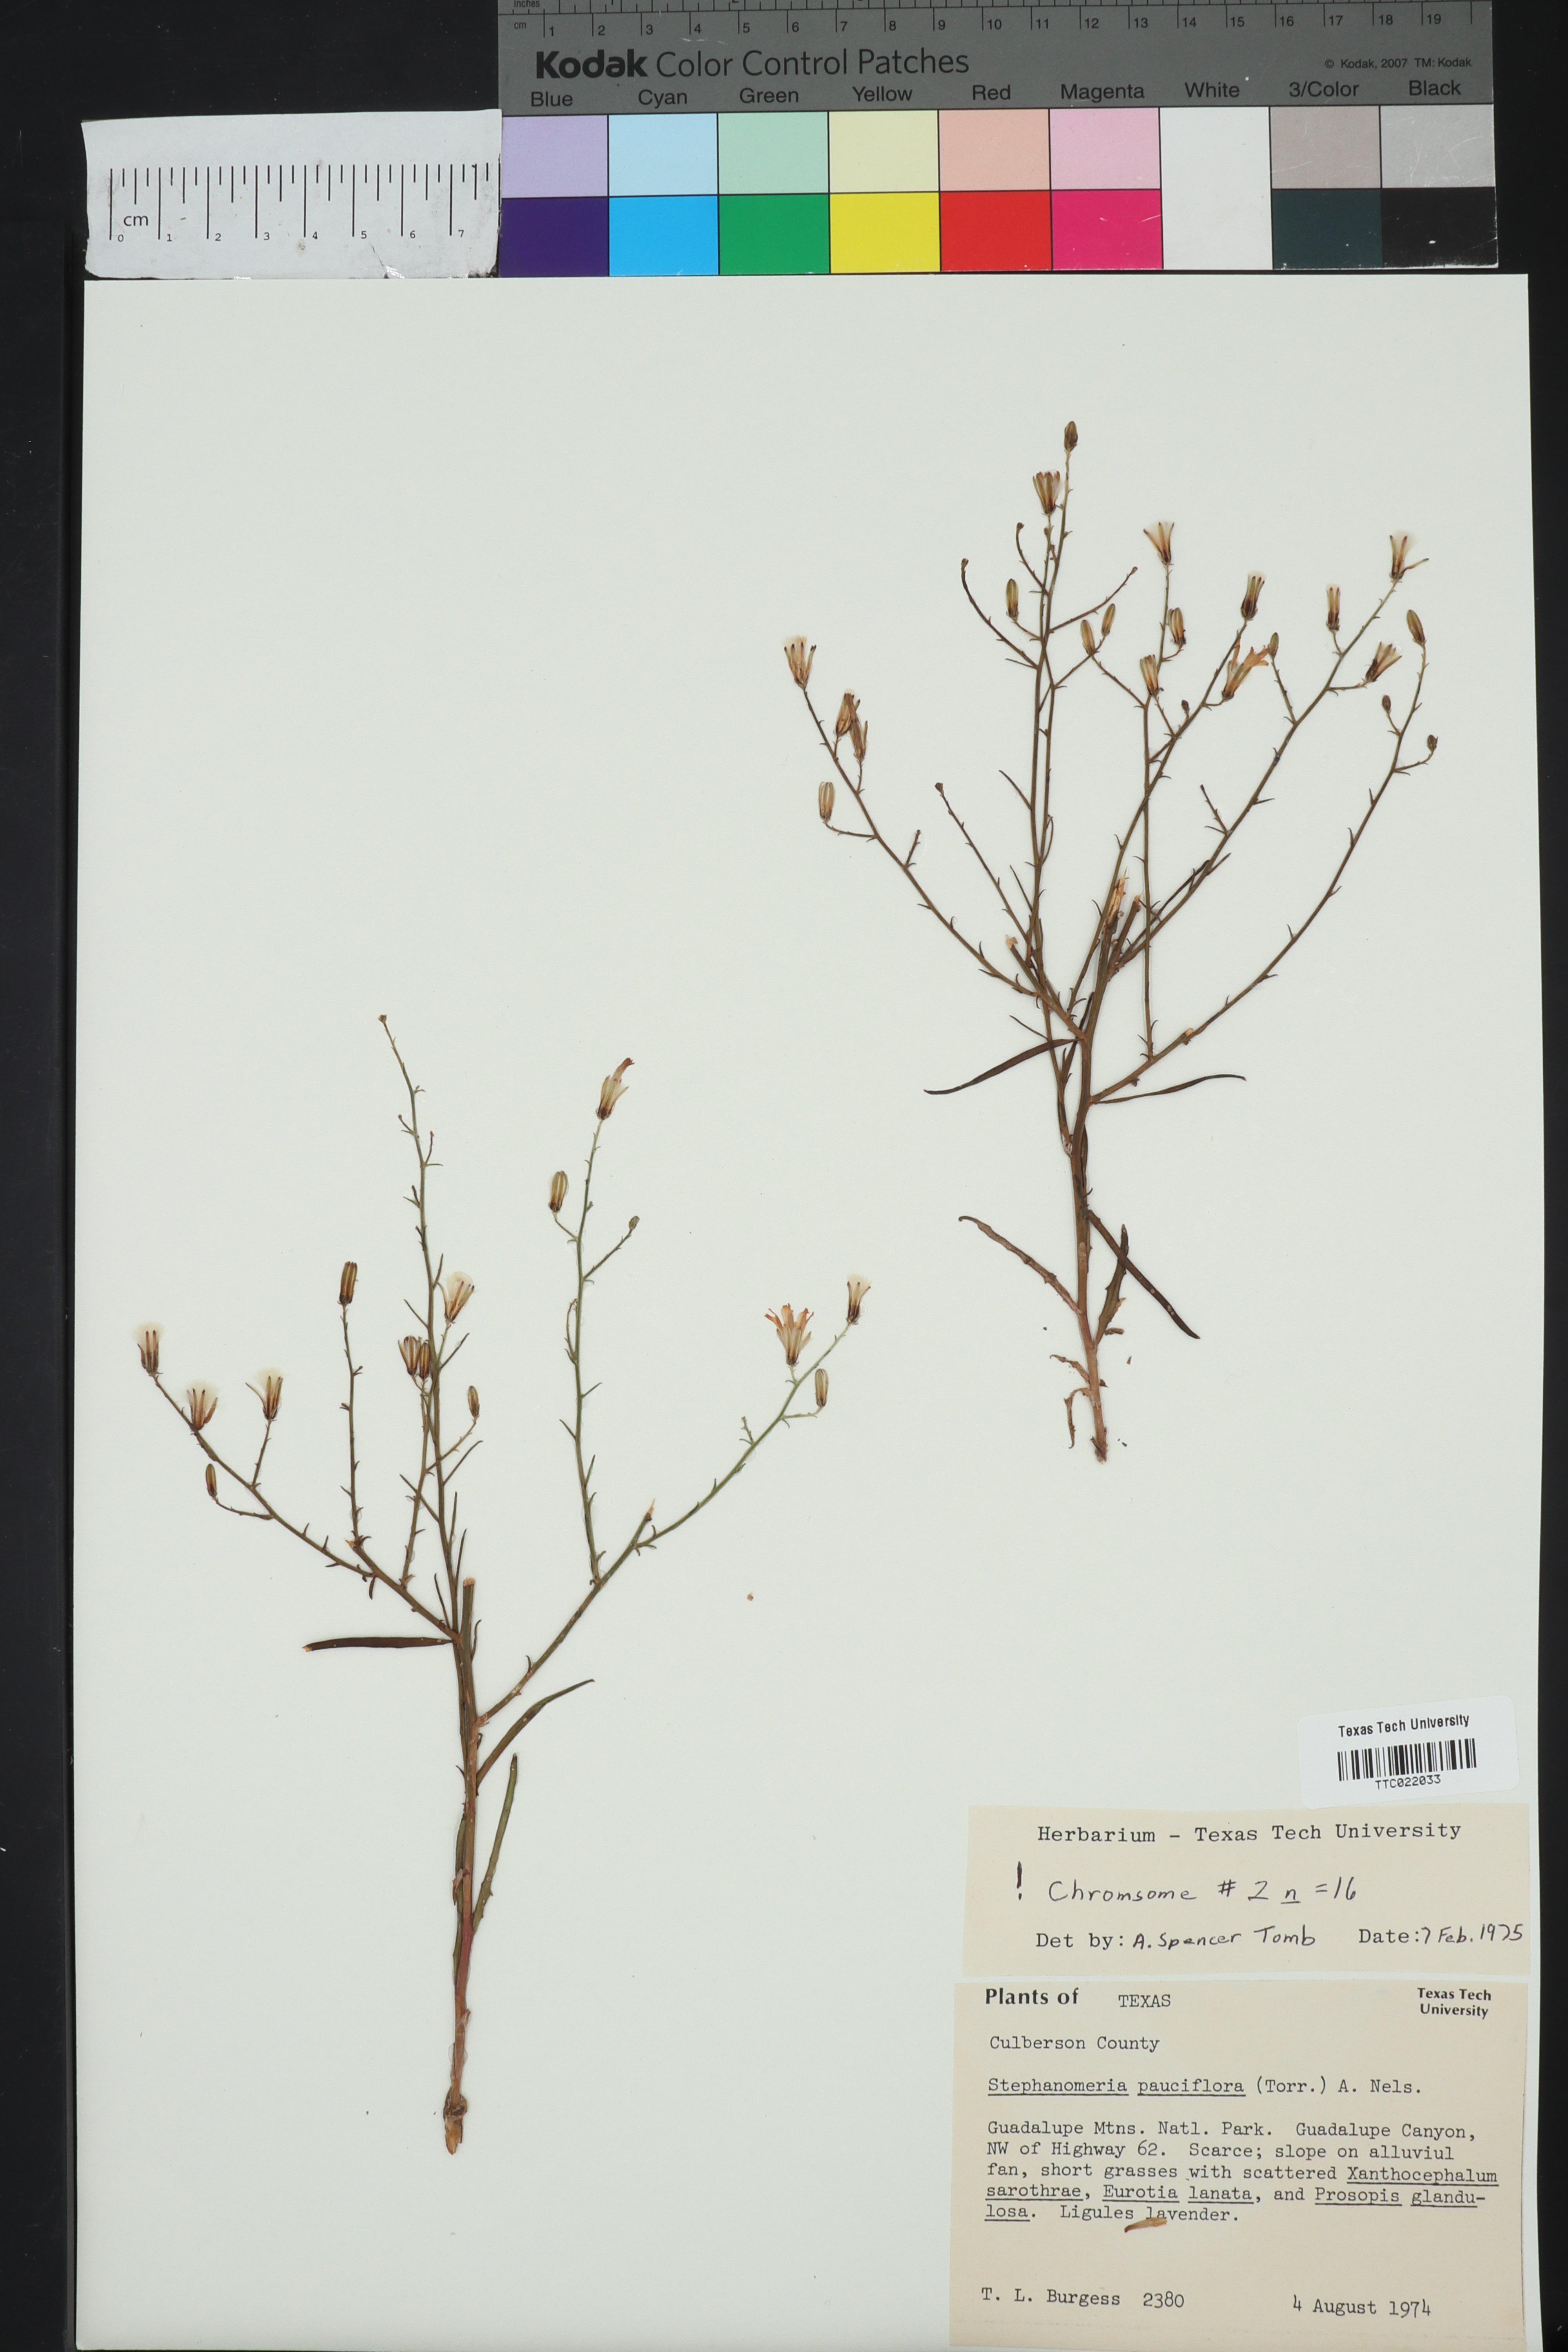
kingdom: Plantae
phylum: Tracheophyta
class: Magnoliopsida
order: Asterales
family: Asteraceae
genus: Stephanomeria
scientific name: Stephanomeria pauciflora
